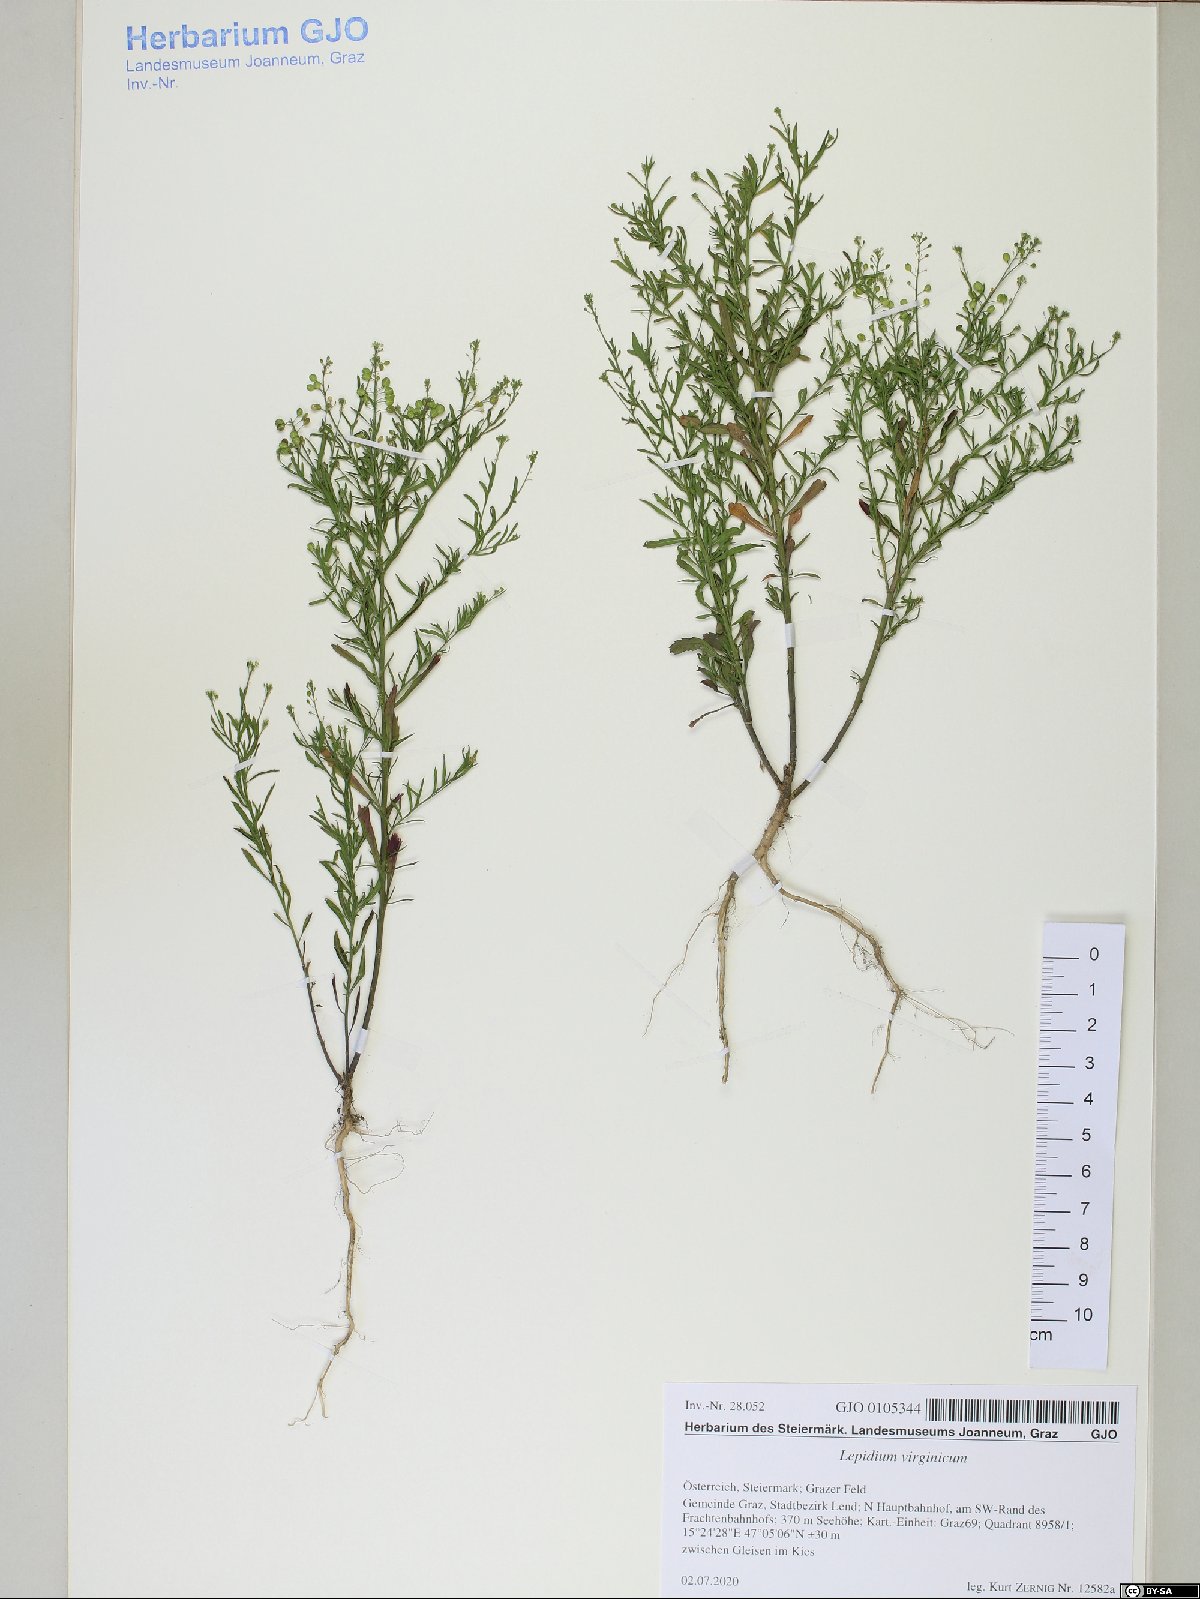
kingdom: Plantae
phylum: Tracheophyta
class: Magnoliopsida
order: Brassicales
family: Brassicaceae
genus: Lepidium
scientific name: Lepidium virginicum
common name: Least pepperwort
